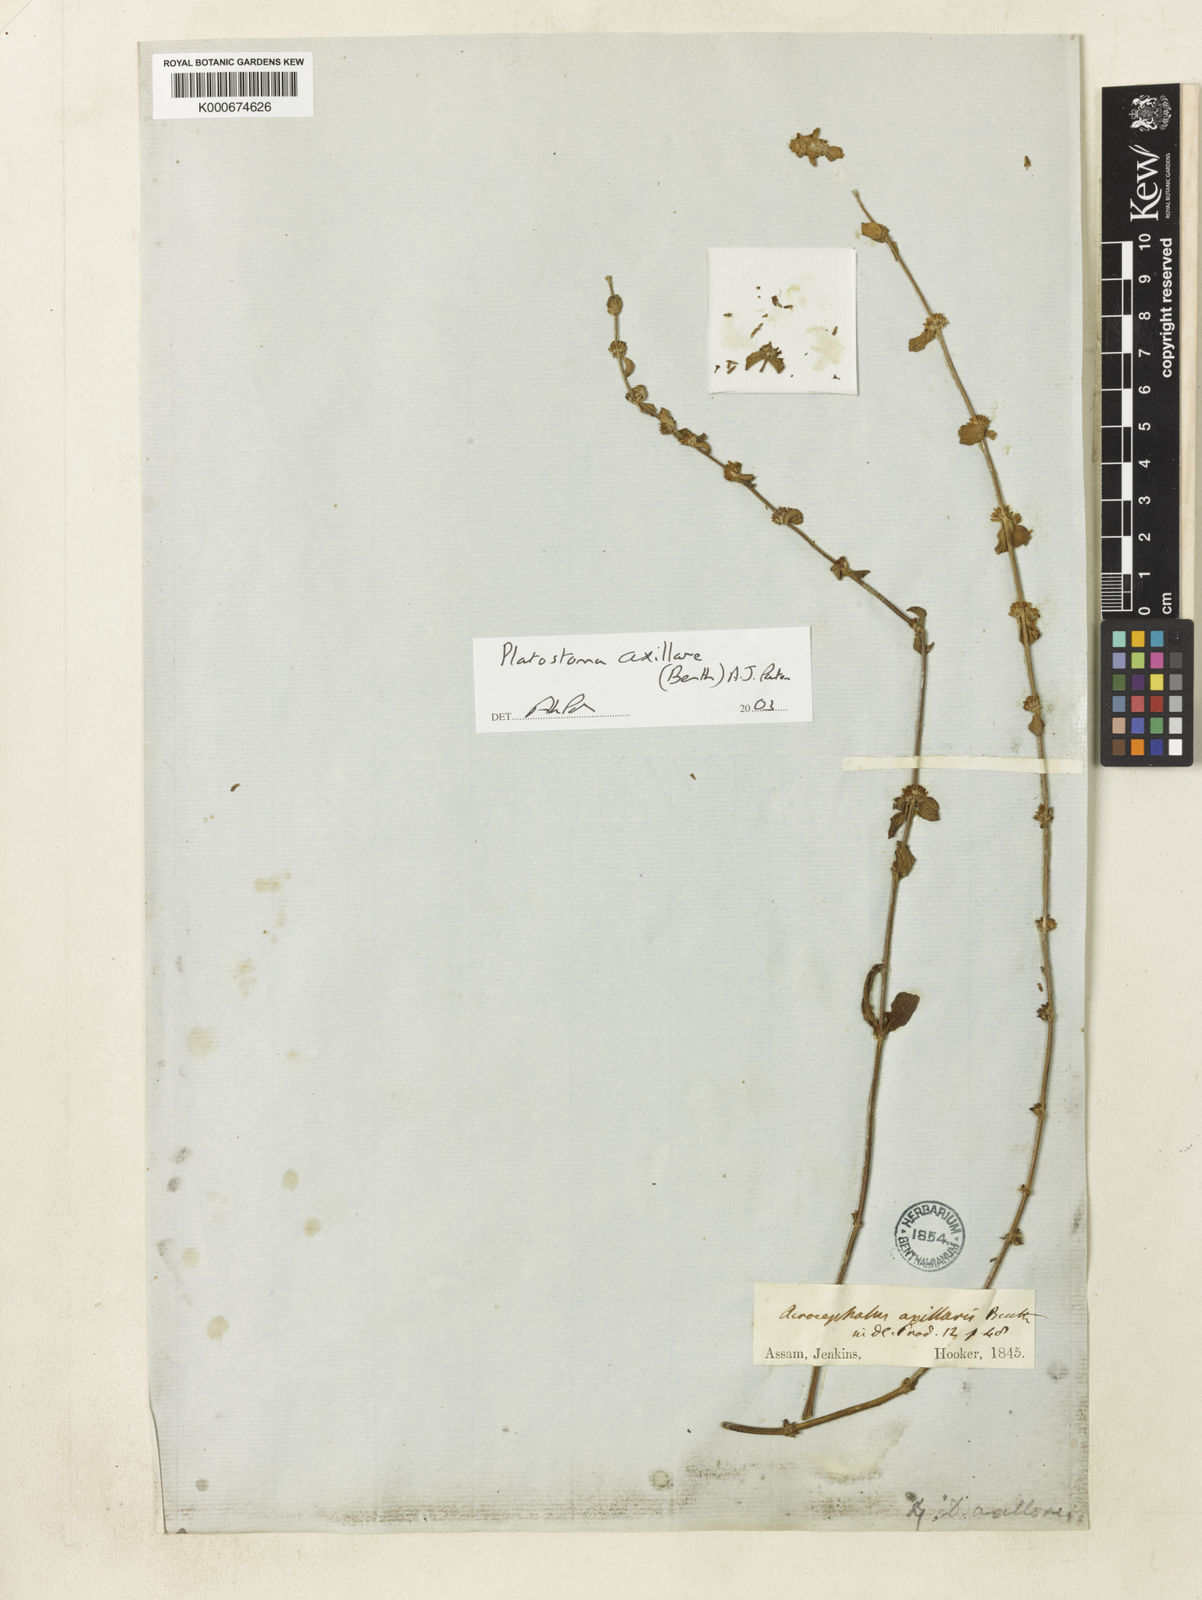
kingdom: Plantae
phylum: Tracheophyta
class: Magnoliopsida
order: Lamiales
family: Lamiaceae
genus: Platostoma
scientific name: Platostoma axillaris
